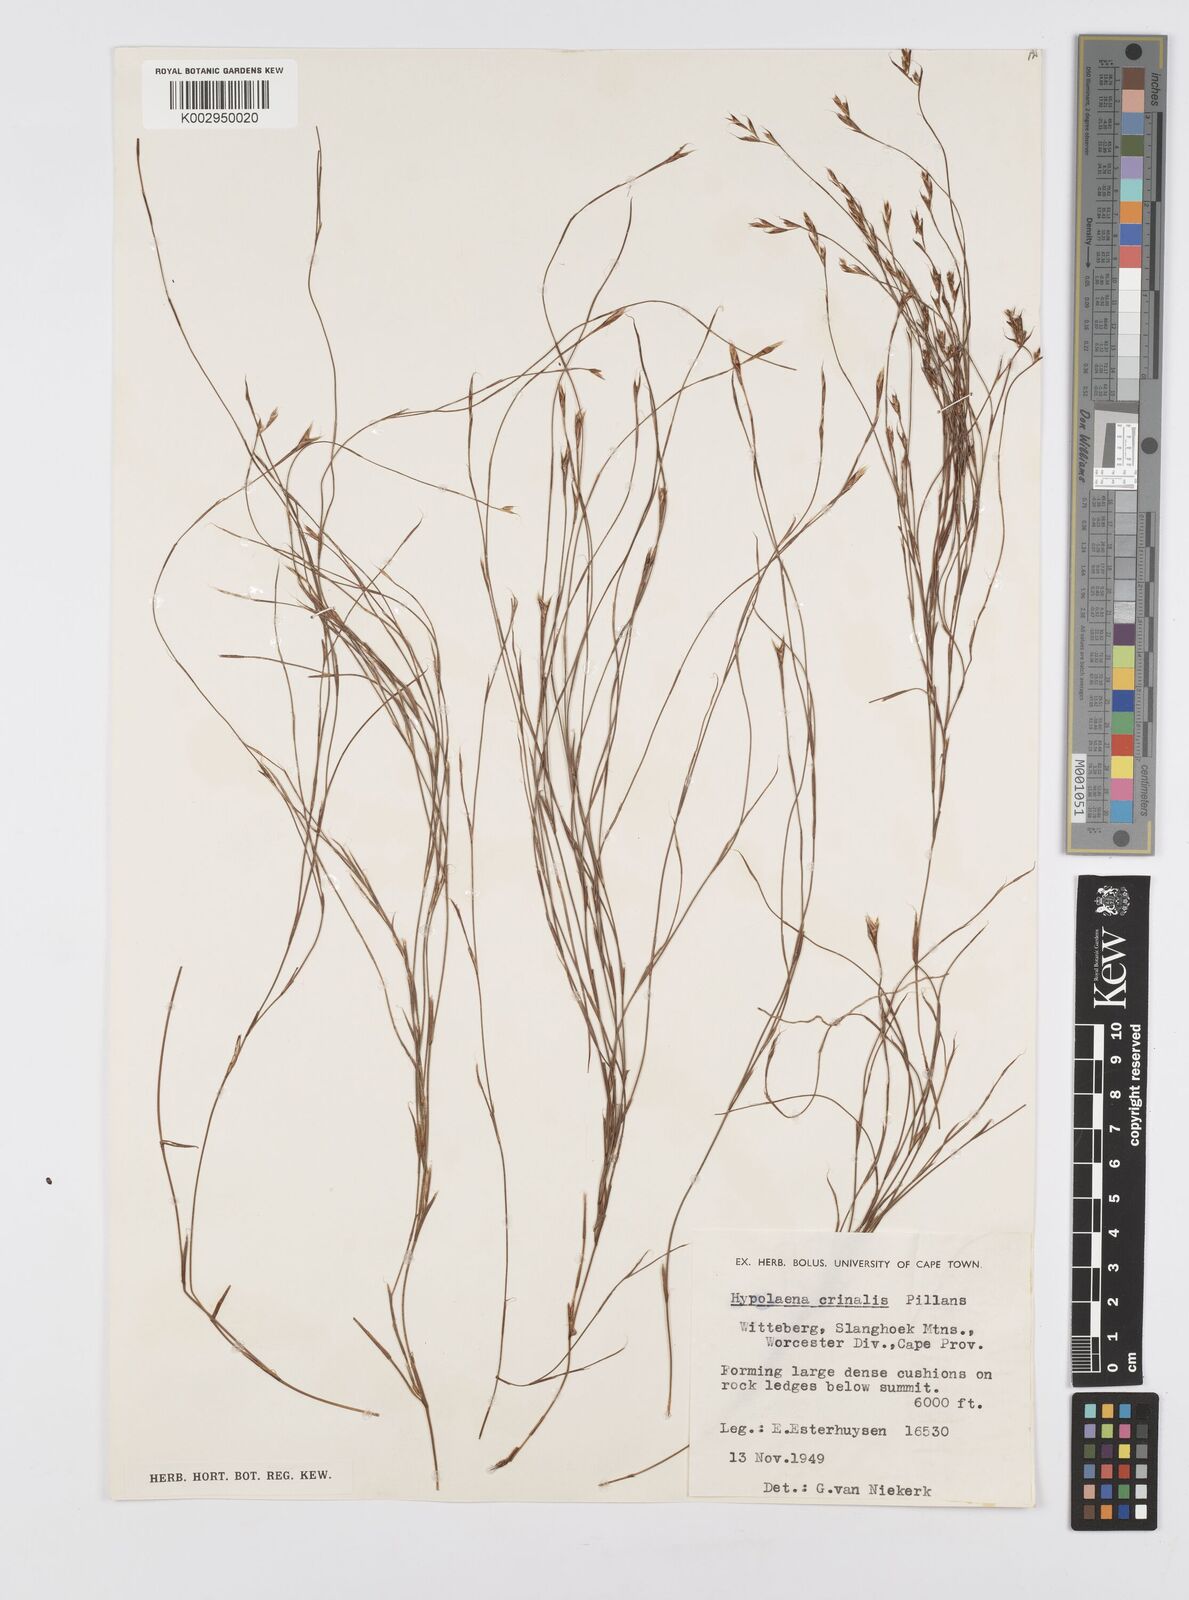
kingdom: Plantae
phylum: Tracheophyta
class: Liliopsida
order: Poales
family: Restionaceae
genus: Anthochortus
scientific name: Anthochortus
